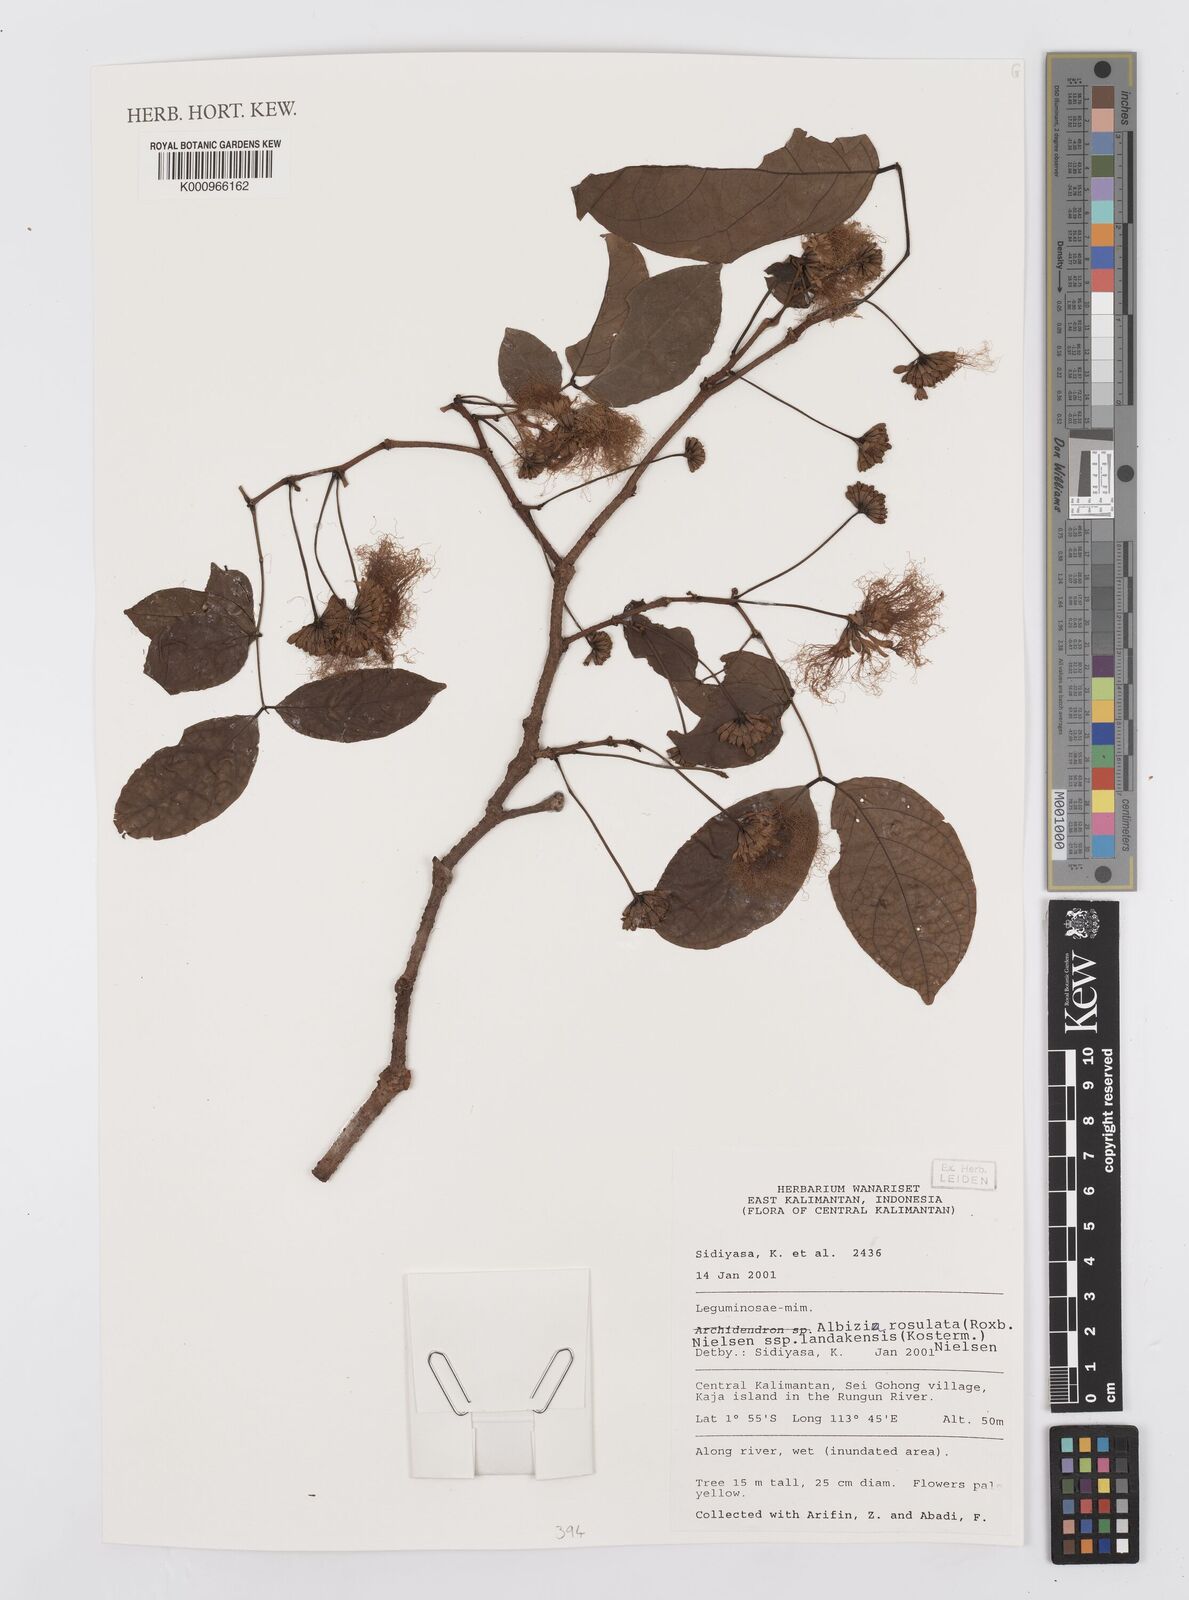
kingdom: Plantae
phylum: Tracheophyta
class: Magnoliopsida
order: Fabales
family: Fabaceae
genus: Albizia
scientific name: Albizia rosulata
